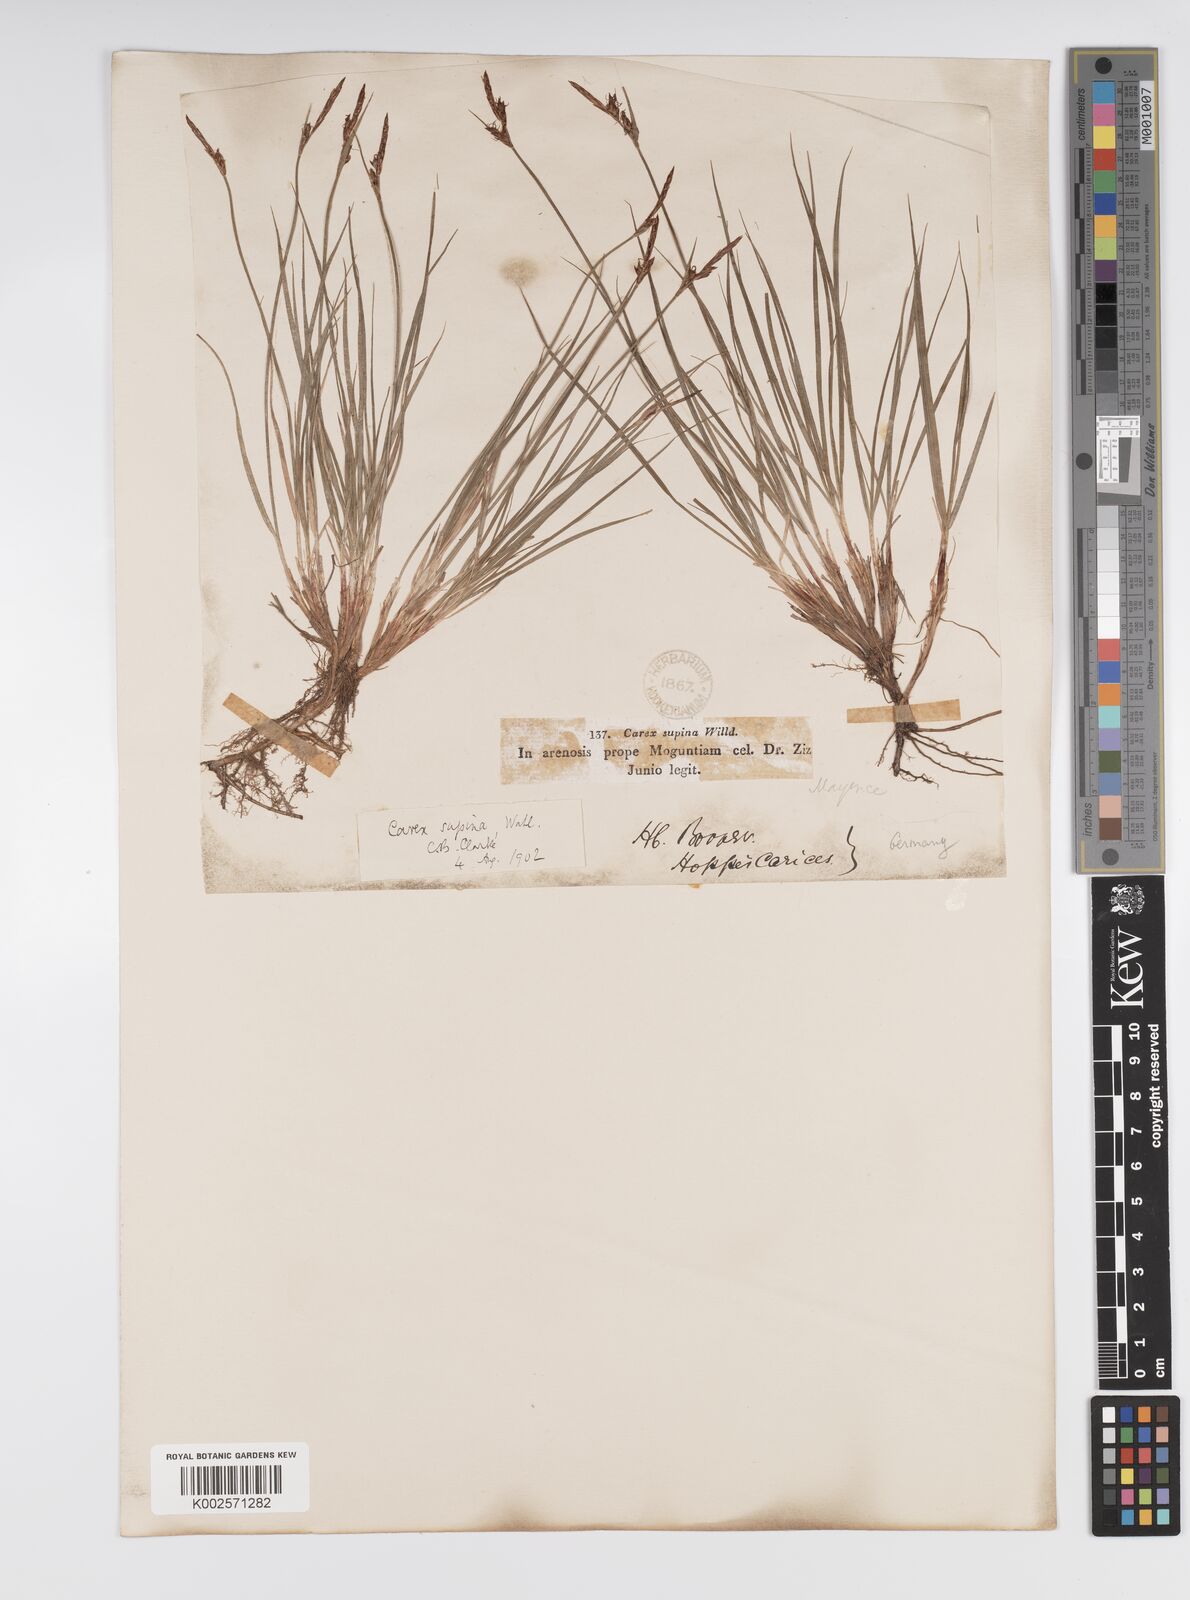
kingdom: Plantae
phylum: Tracheophyta
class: Liliopsida
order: Poales
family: Cyperaceae
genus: Carex
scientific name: Carex supina
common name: Lying-back sedge
